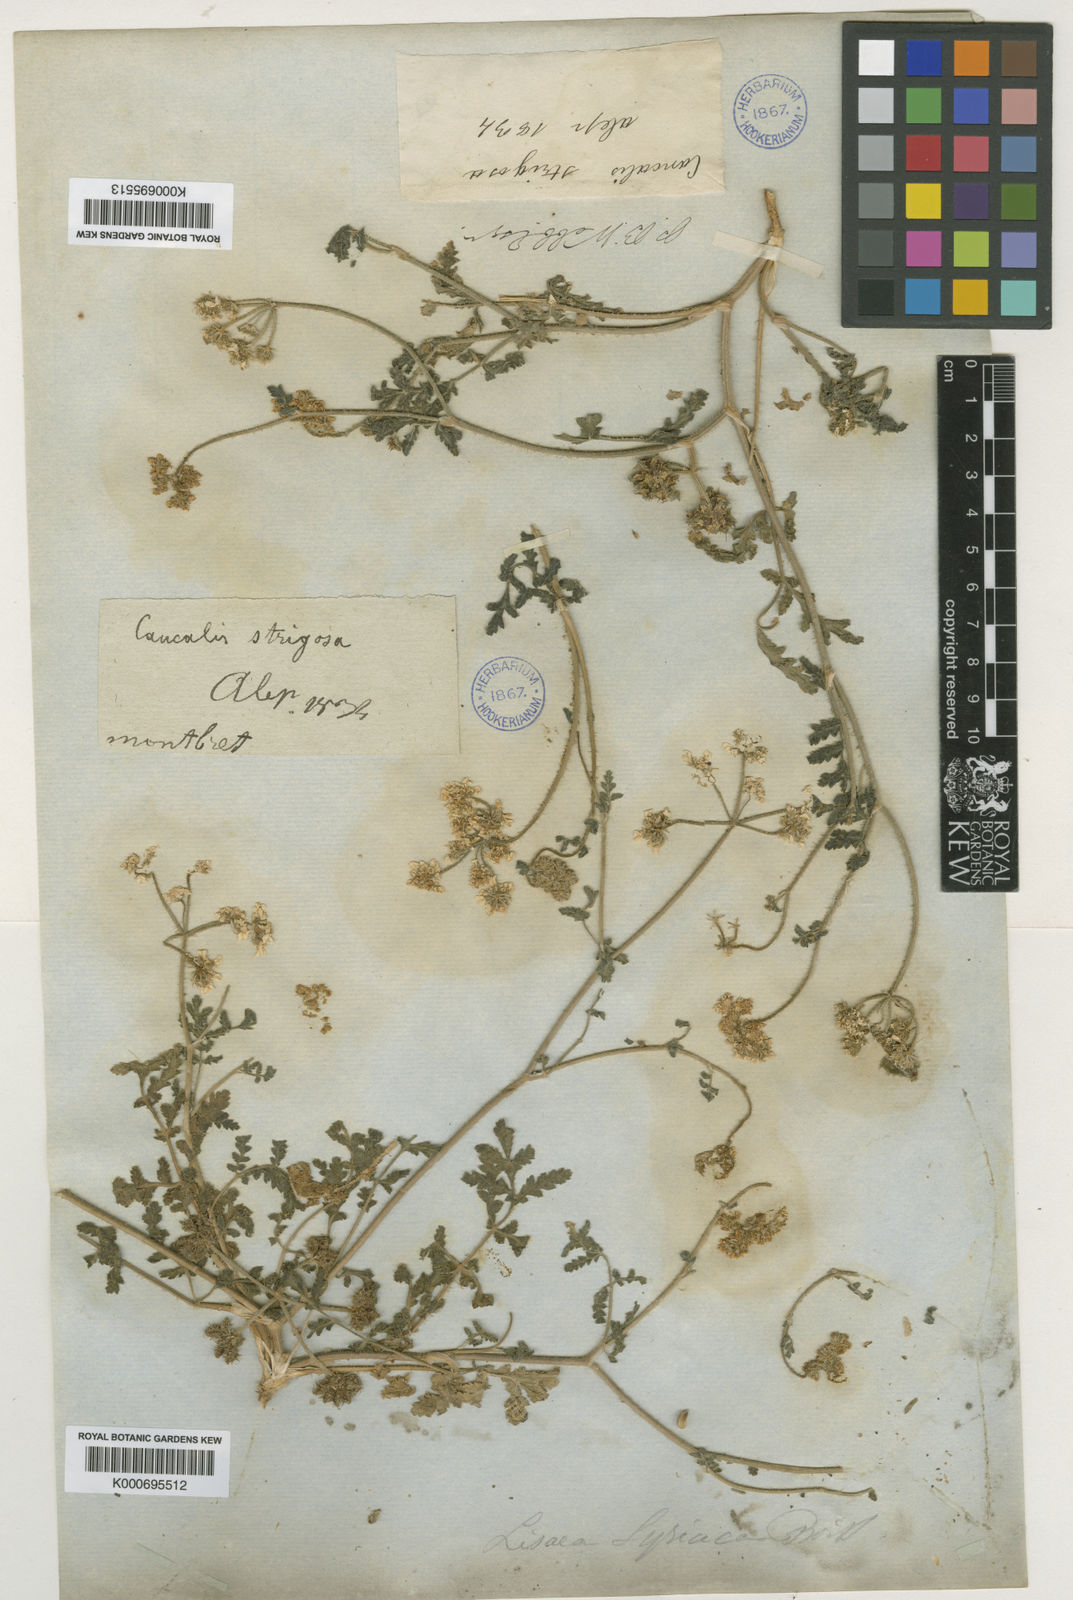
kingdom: Plantae
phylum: Tracheophyta
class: Magnoliopsida
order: Apiales
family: Apiaceae
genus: Lisaea
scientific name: Lisaea
